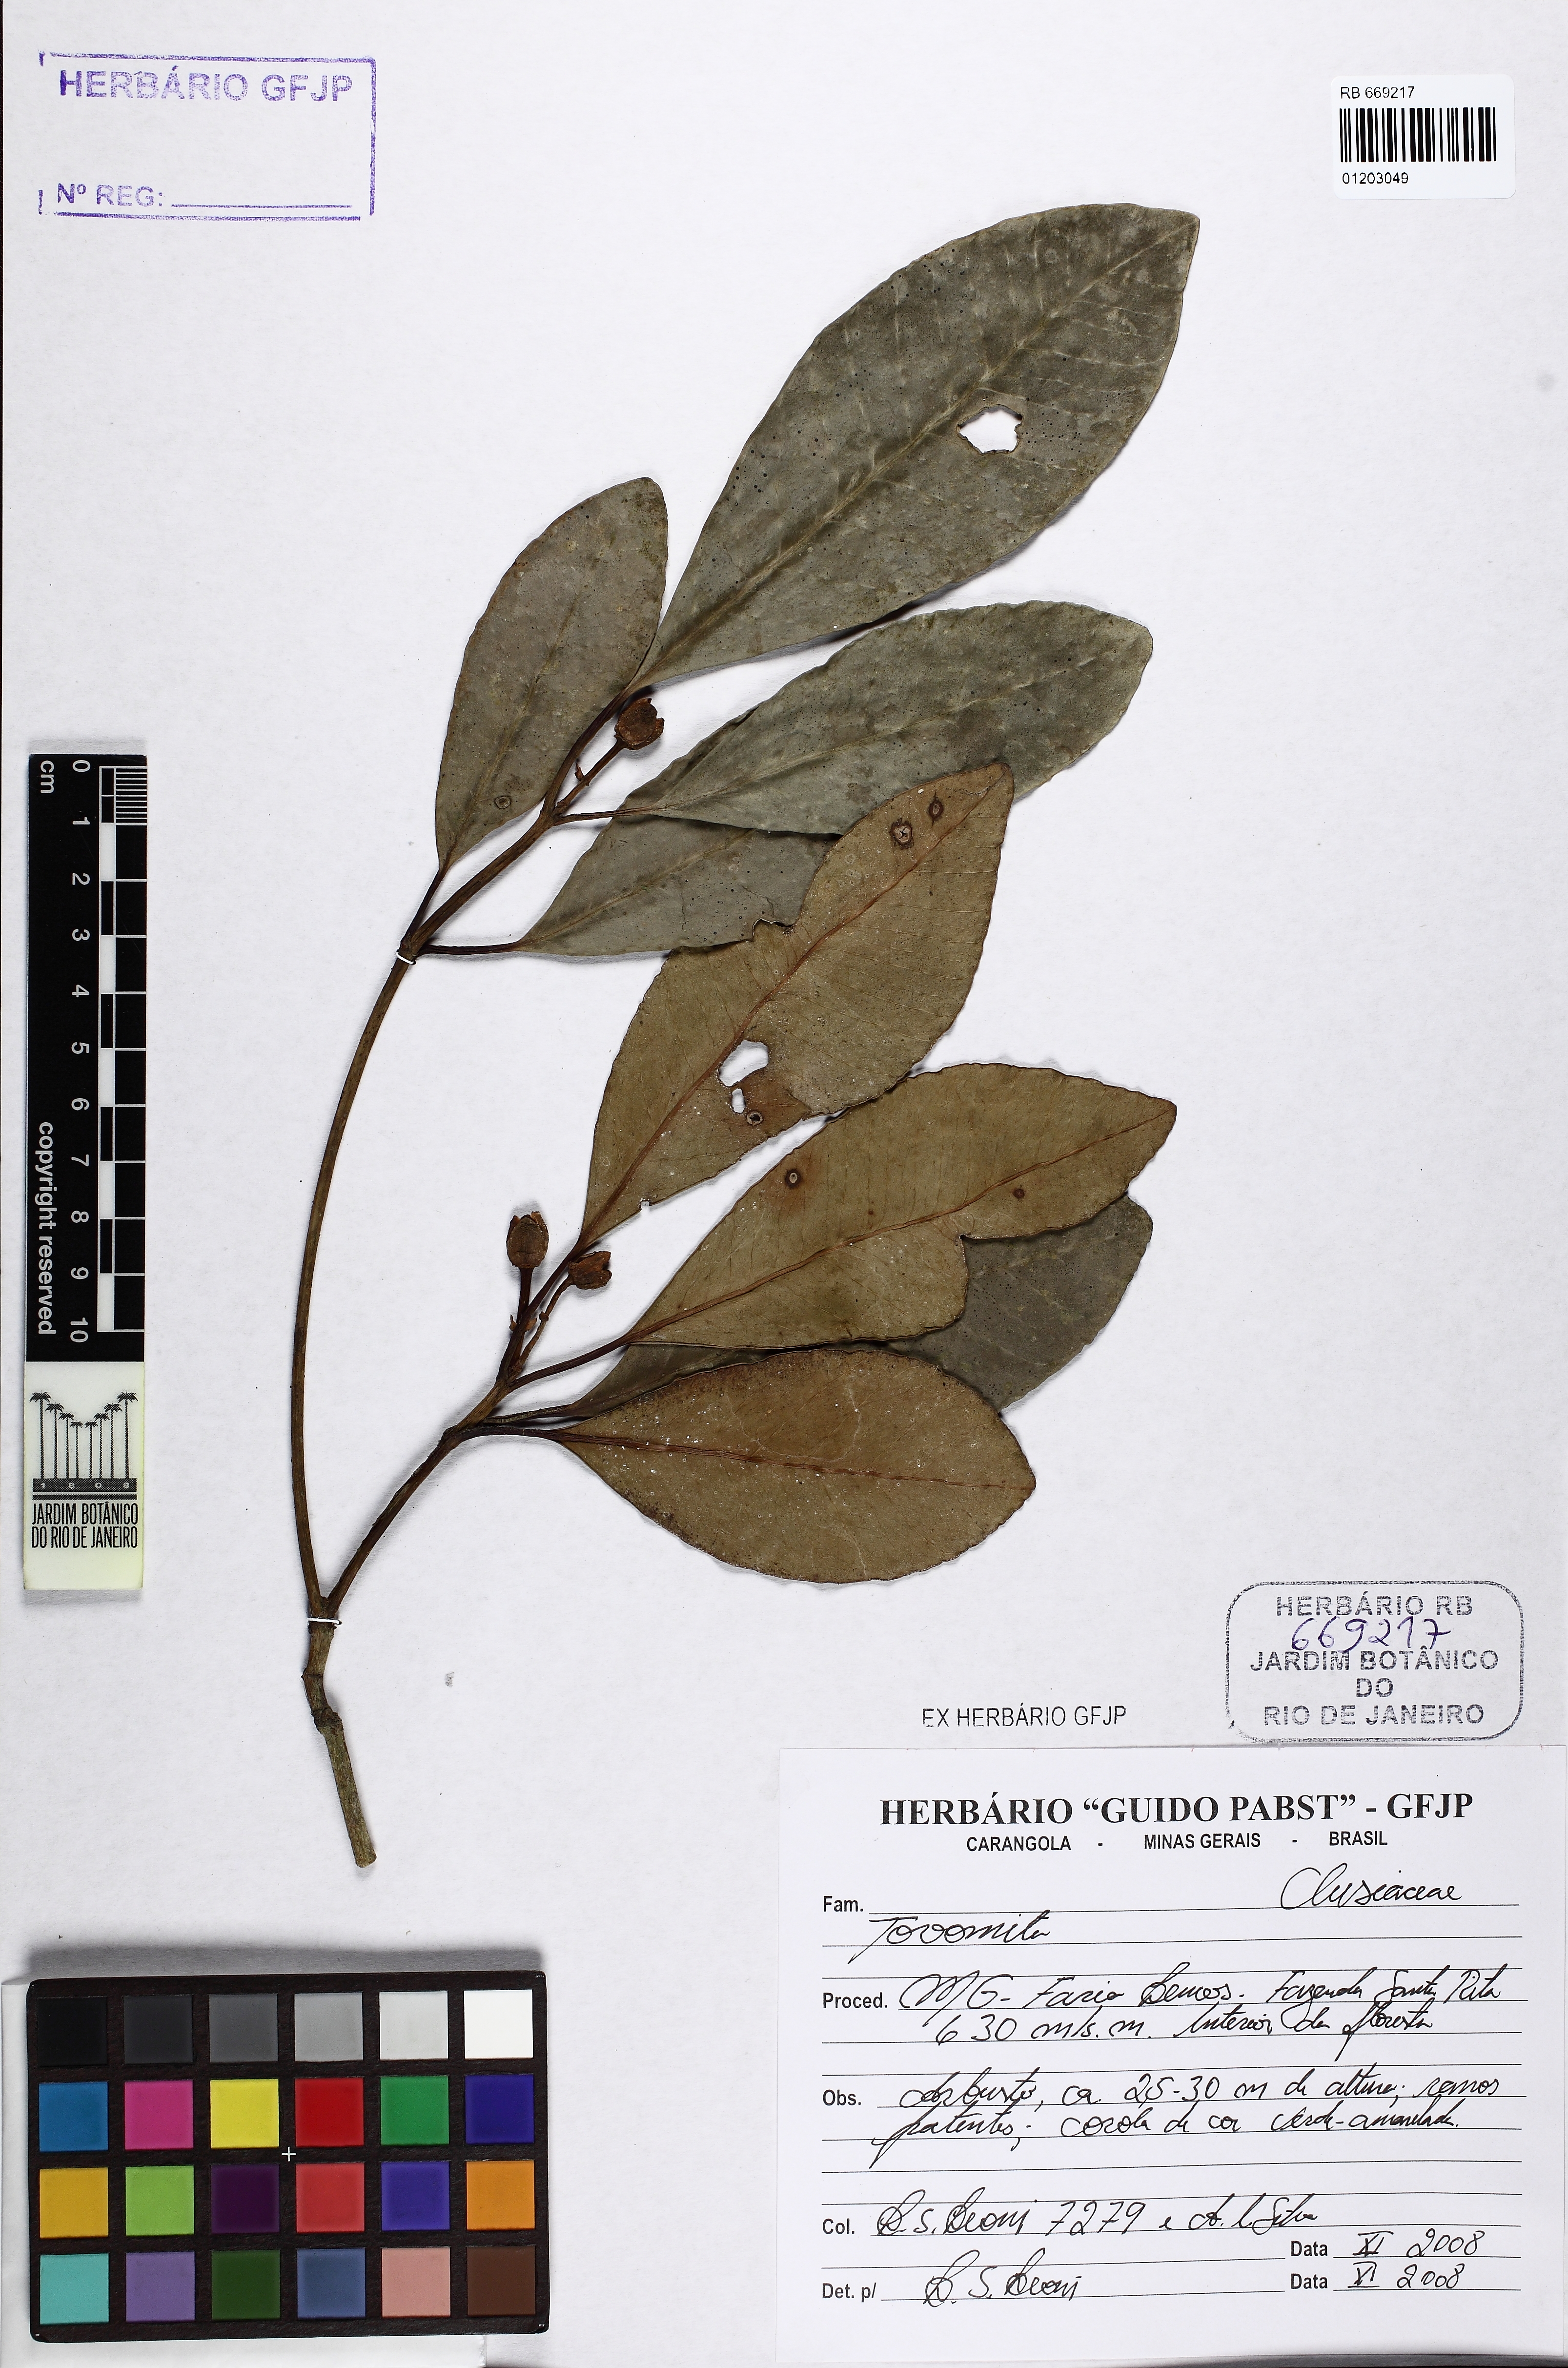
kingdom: Plantae
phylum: Tracheophyta
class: Magnoliopsida
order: Malpighiales
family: Clusiaceae
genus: Tovomita
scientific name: Tovomita
